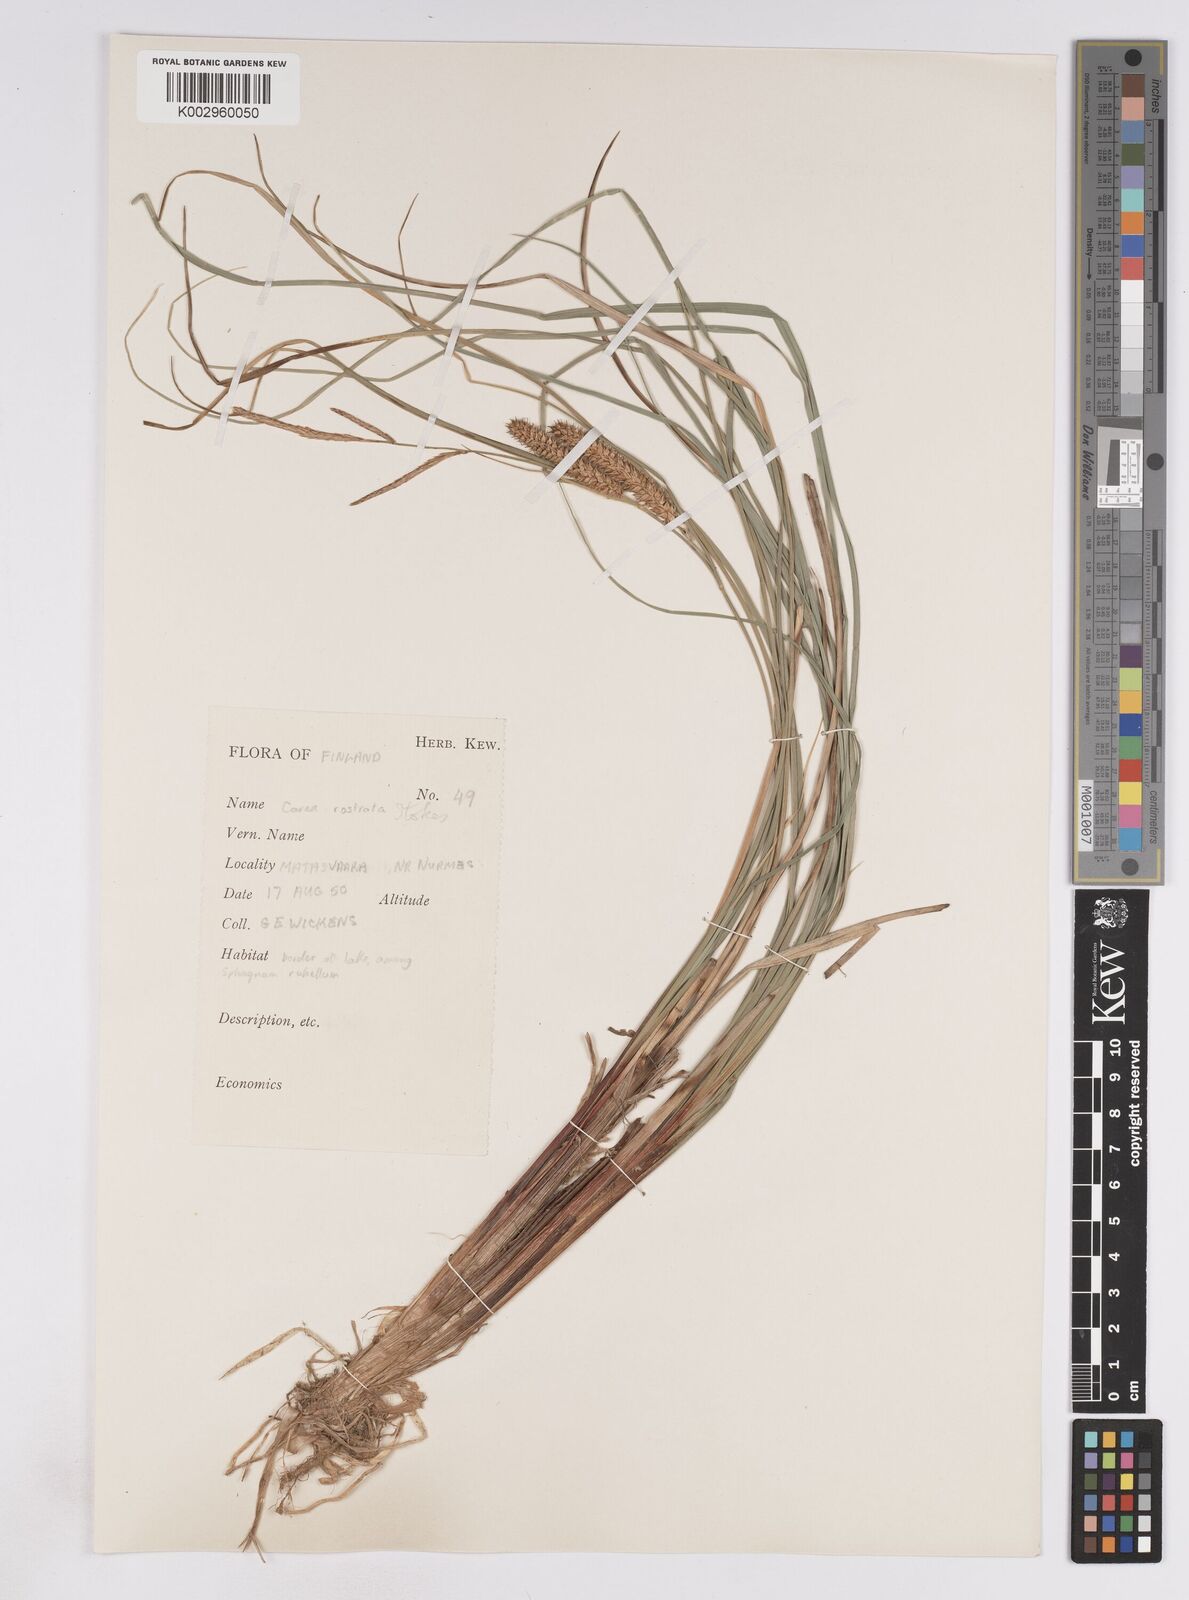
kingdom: Plantae
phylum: Tracheophyta
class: Liliopsida
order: Poales
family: Cyperaceae
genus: Carex
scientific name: Carex
